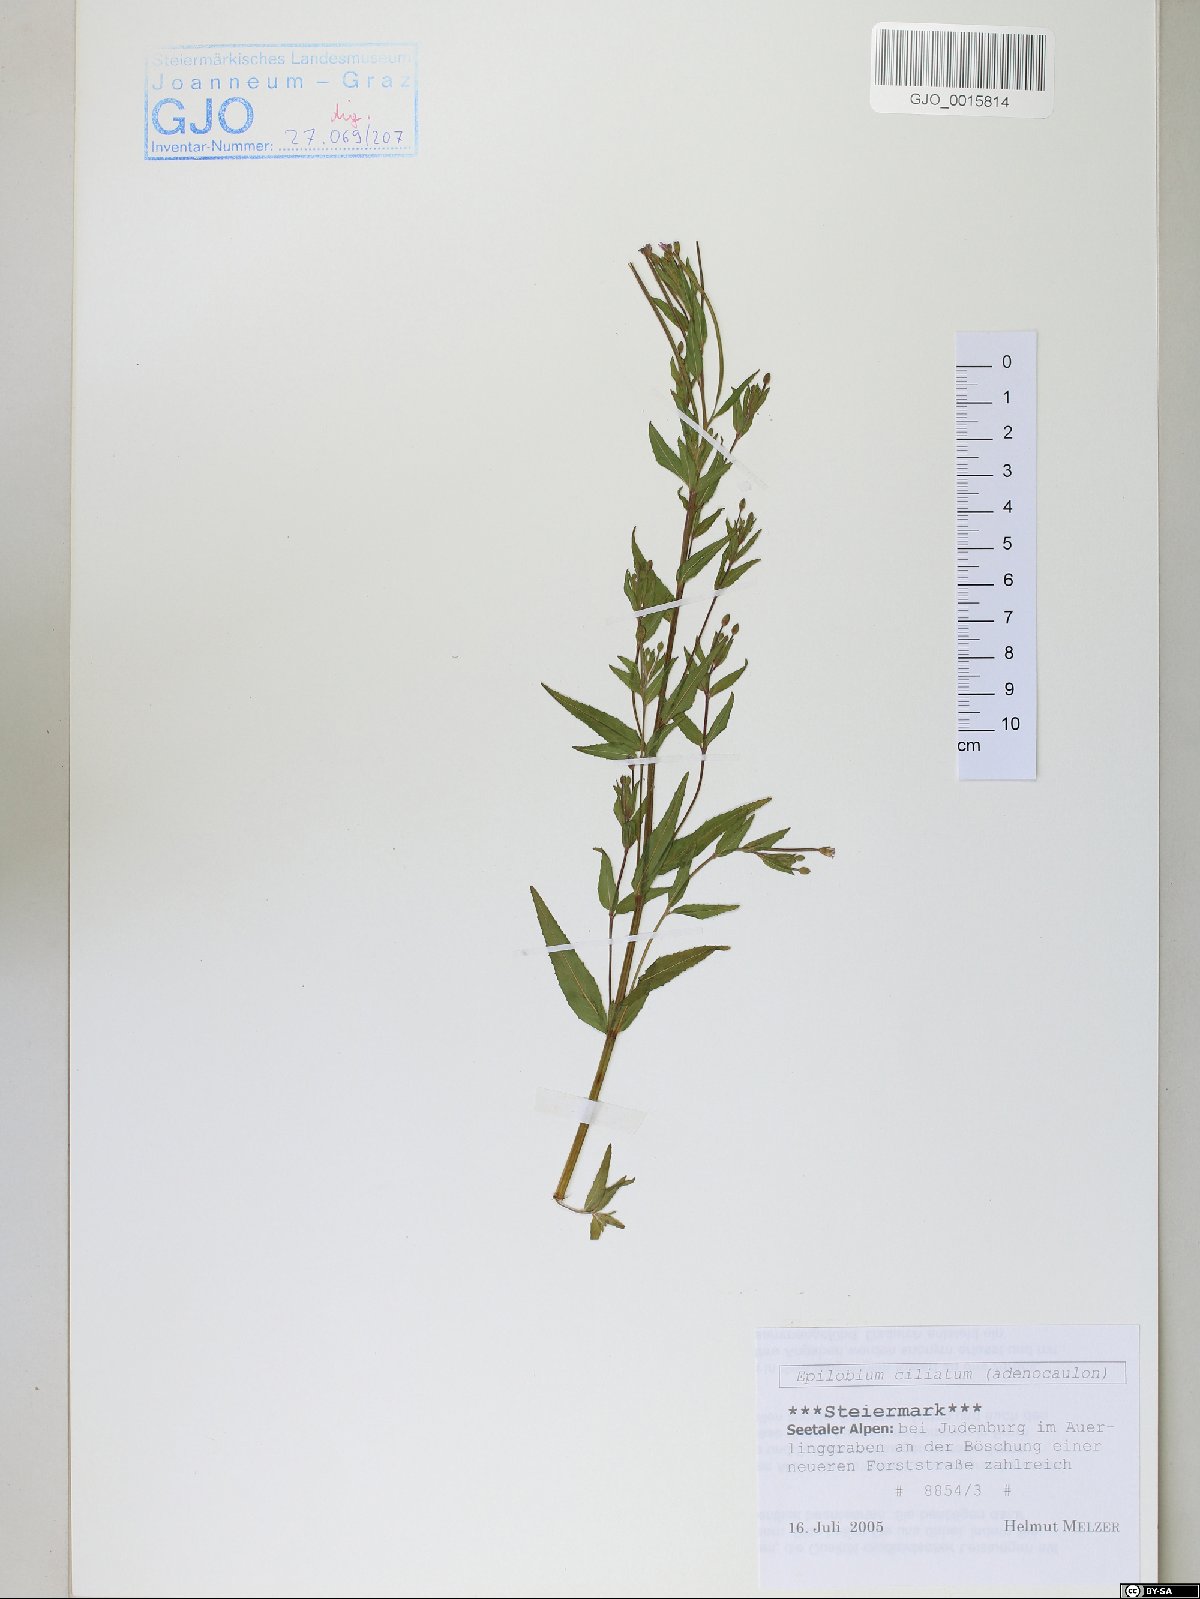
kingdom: Plantae
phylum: Tracheophyta
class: Magnoliopsida
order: Myrtales
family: Onagraceae
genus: Epilobium
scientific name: Epilobium ciliatum
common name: American willowherb
